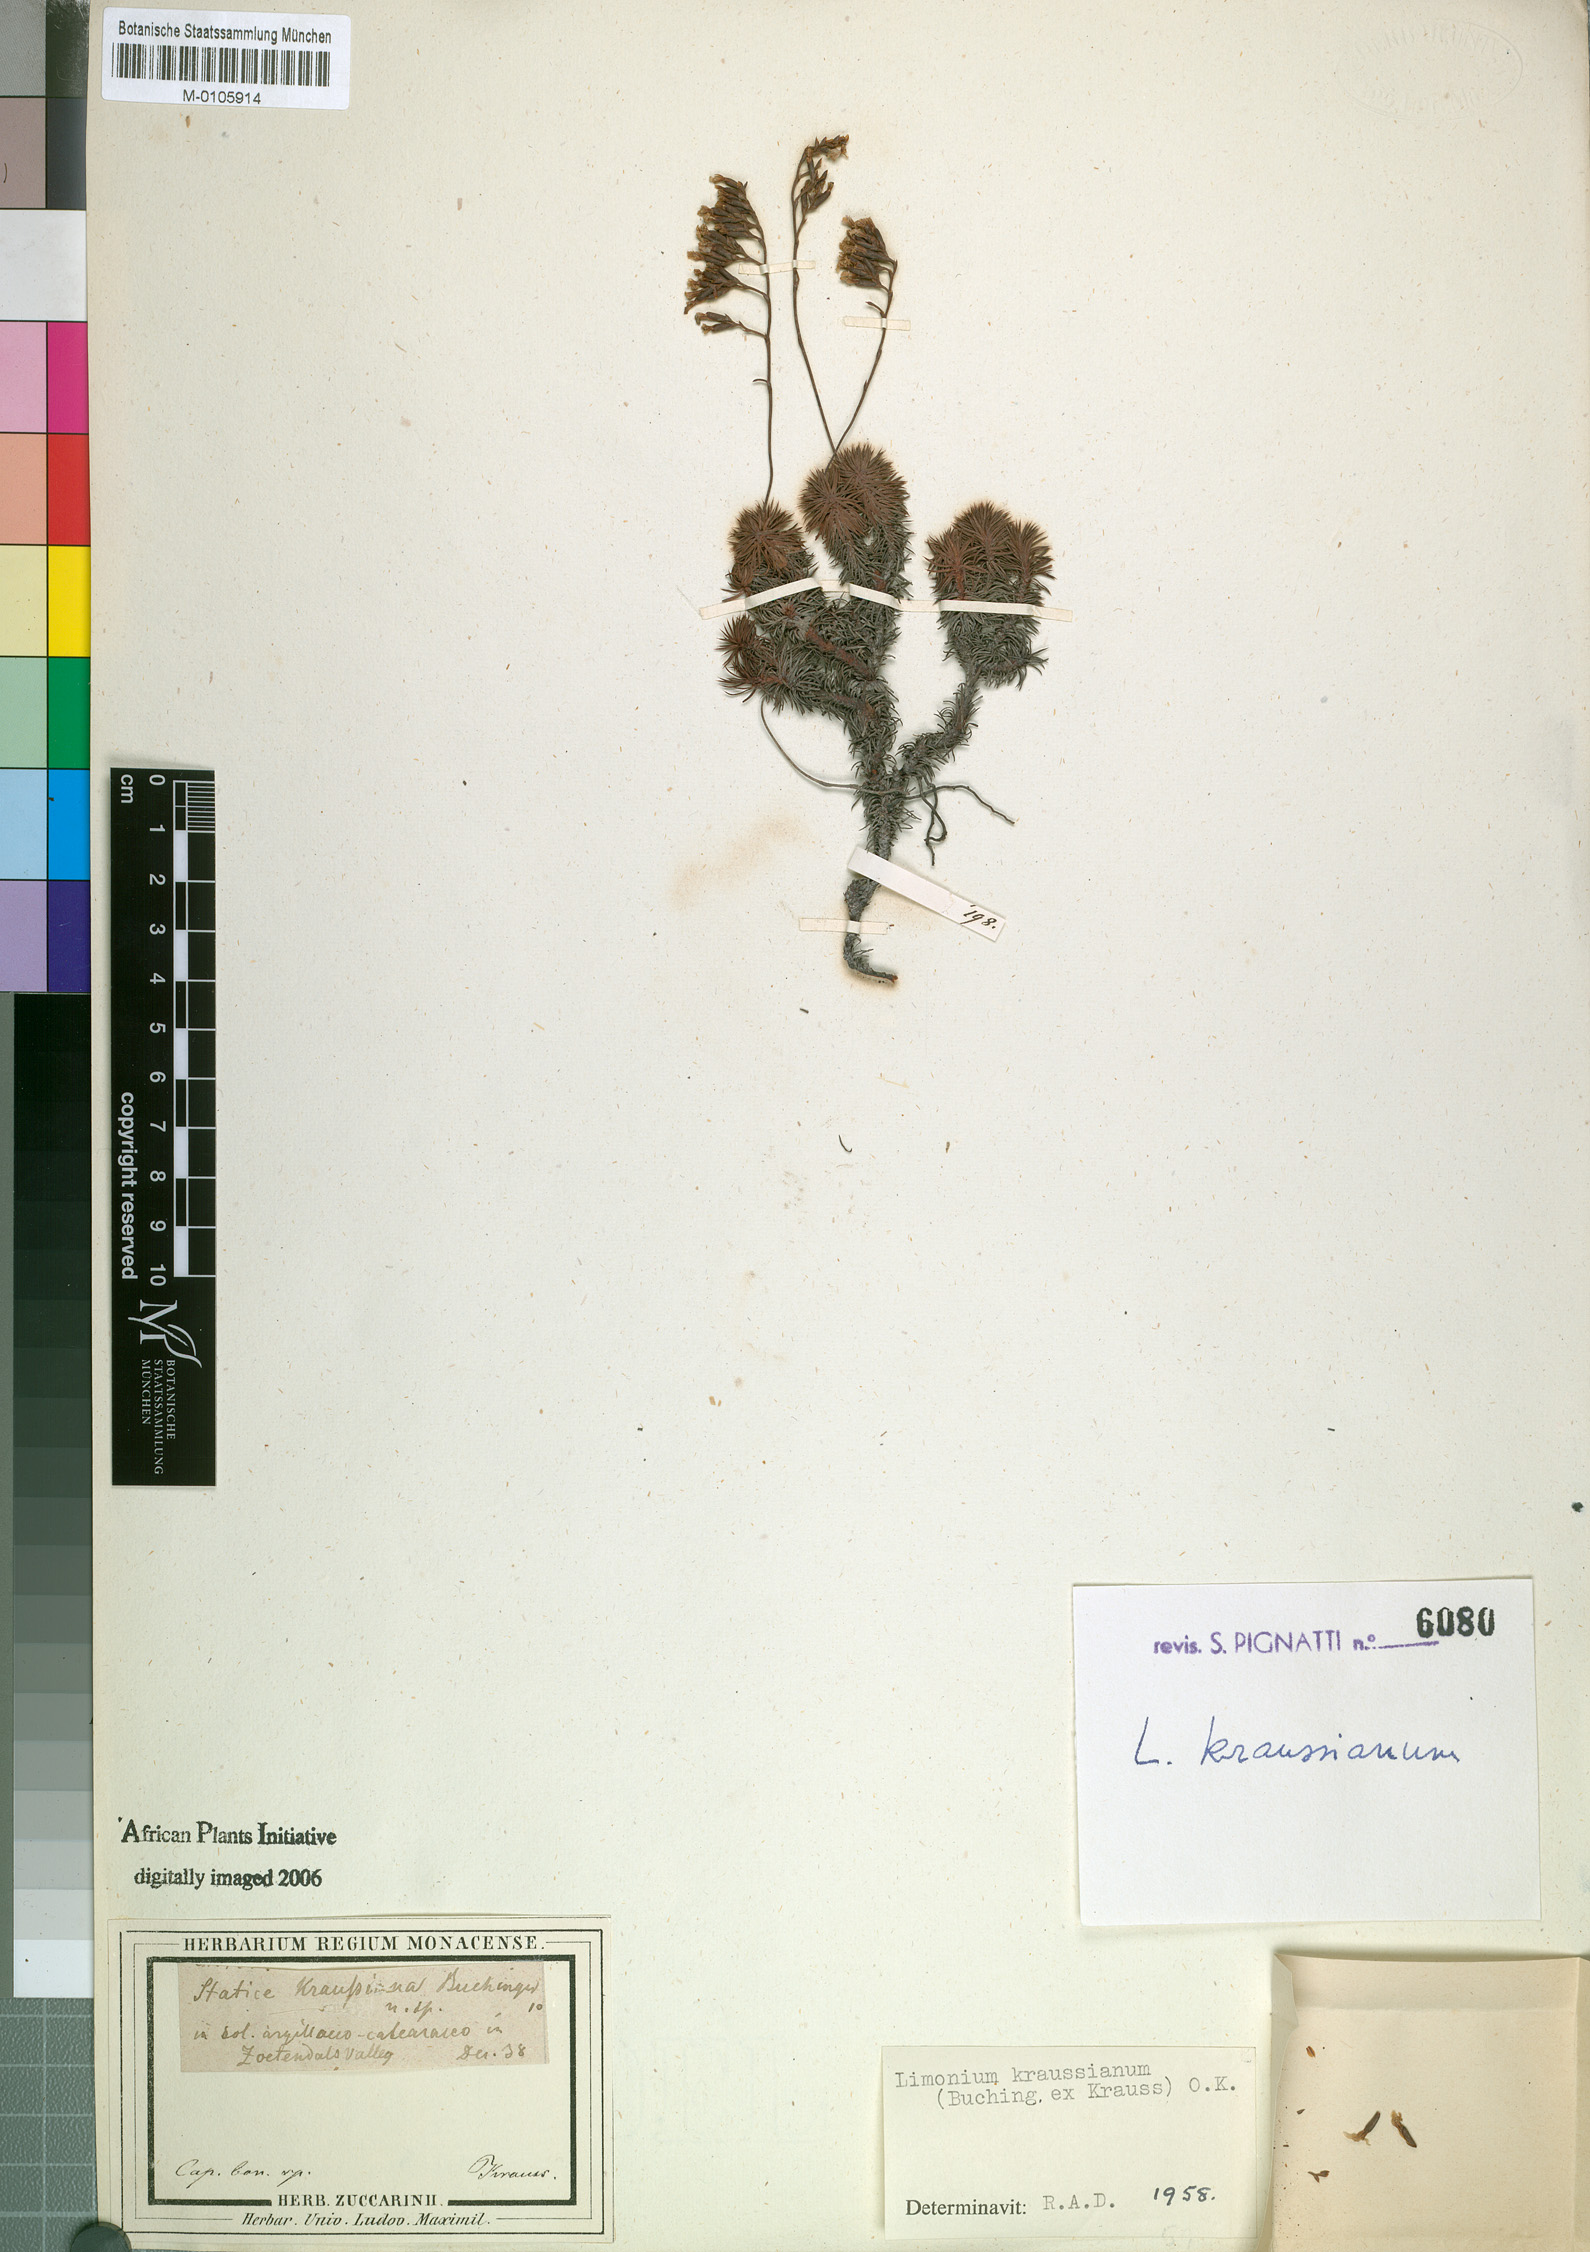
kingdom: Plantae
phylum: Tracheophyta
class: Magnoliopsida
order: Caryophyllales
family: Plumbaginaceae
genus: Limonium
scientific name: Limonium kraussianum
